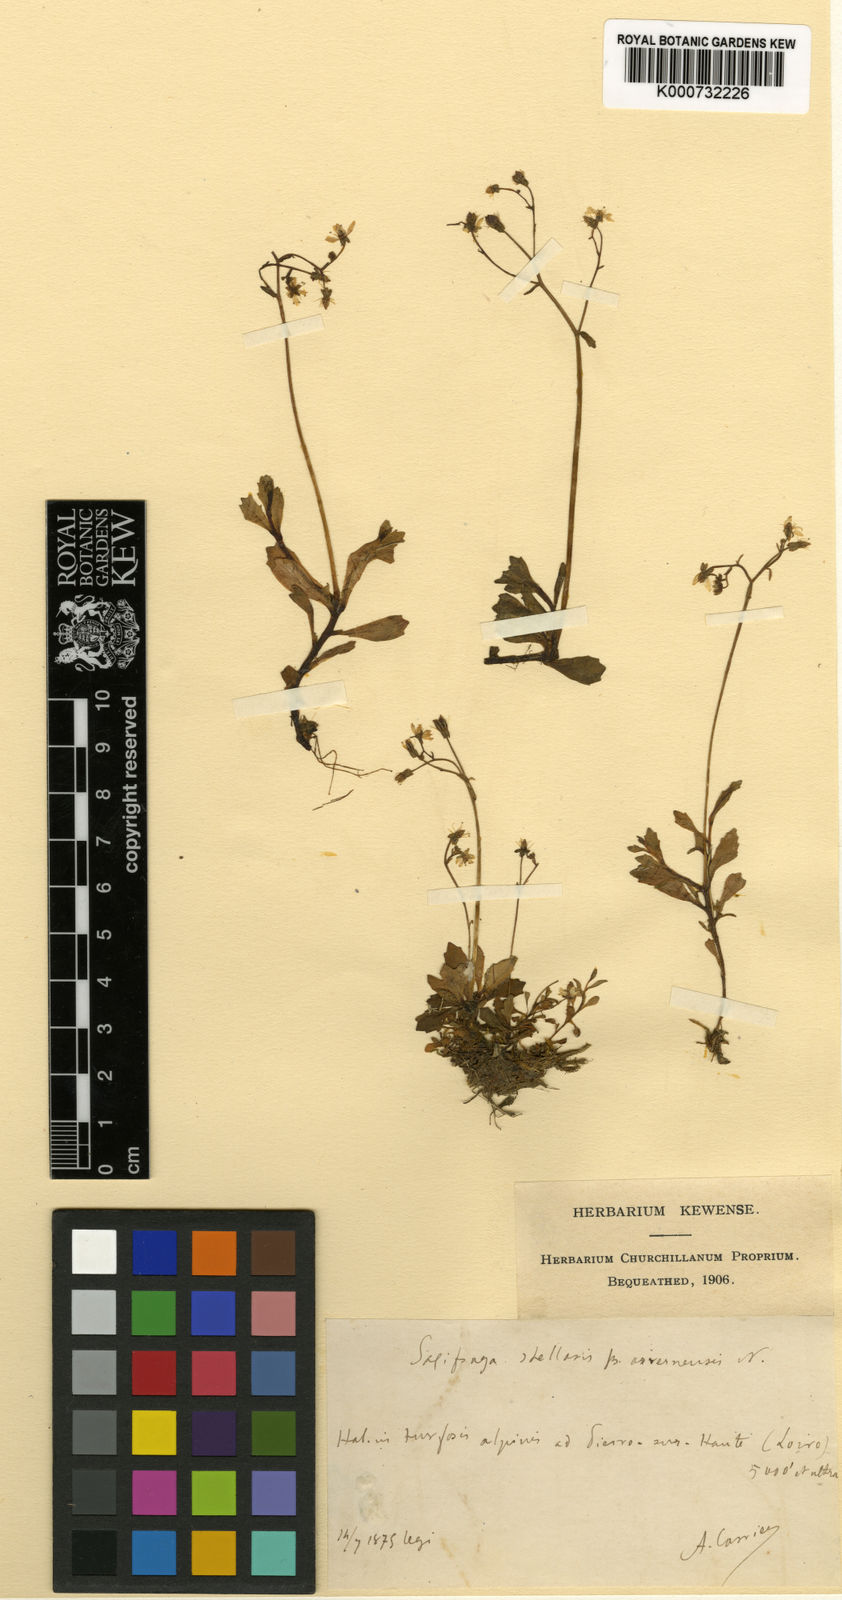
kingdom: Plantae
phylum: Tracheophyta
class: Magnoliopsida
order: Saxifragales
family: Saxifragaceae
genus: Micranthes
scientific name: Micranthes stellaris
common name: Starry saxifrage
